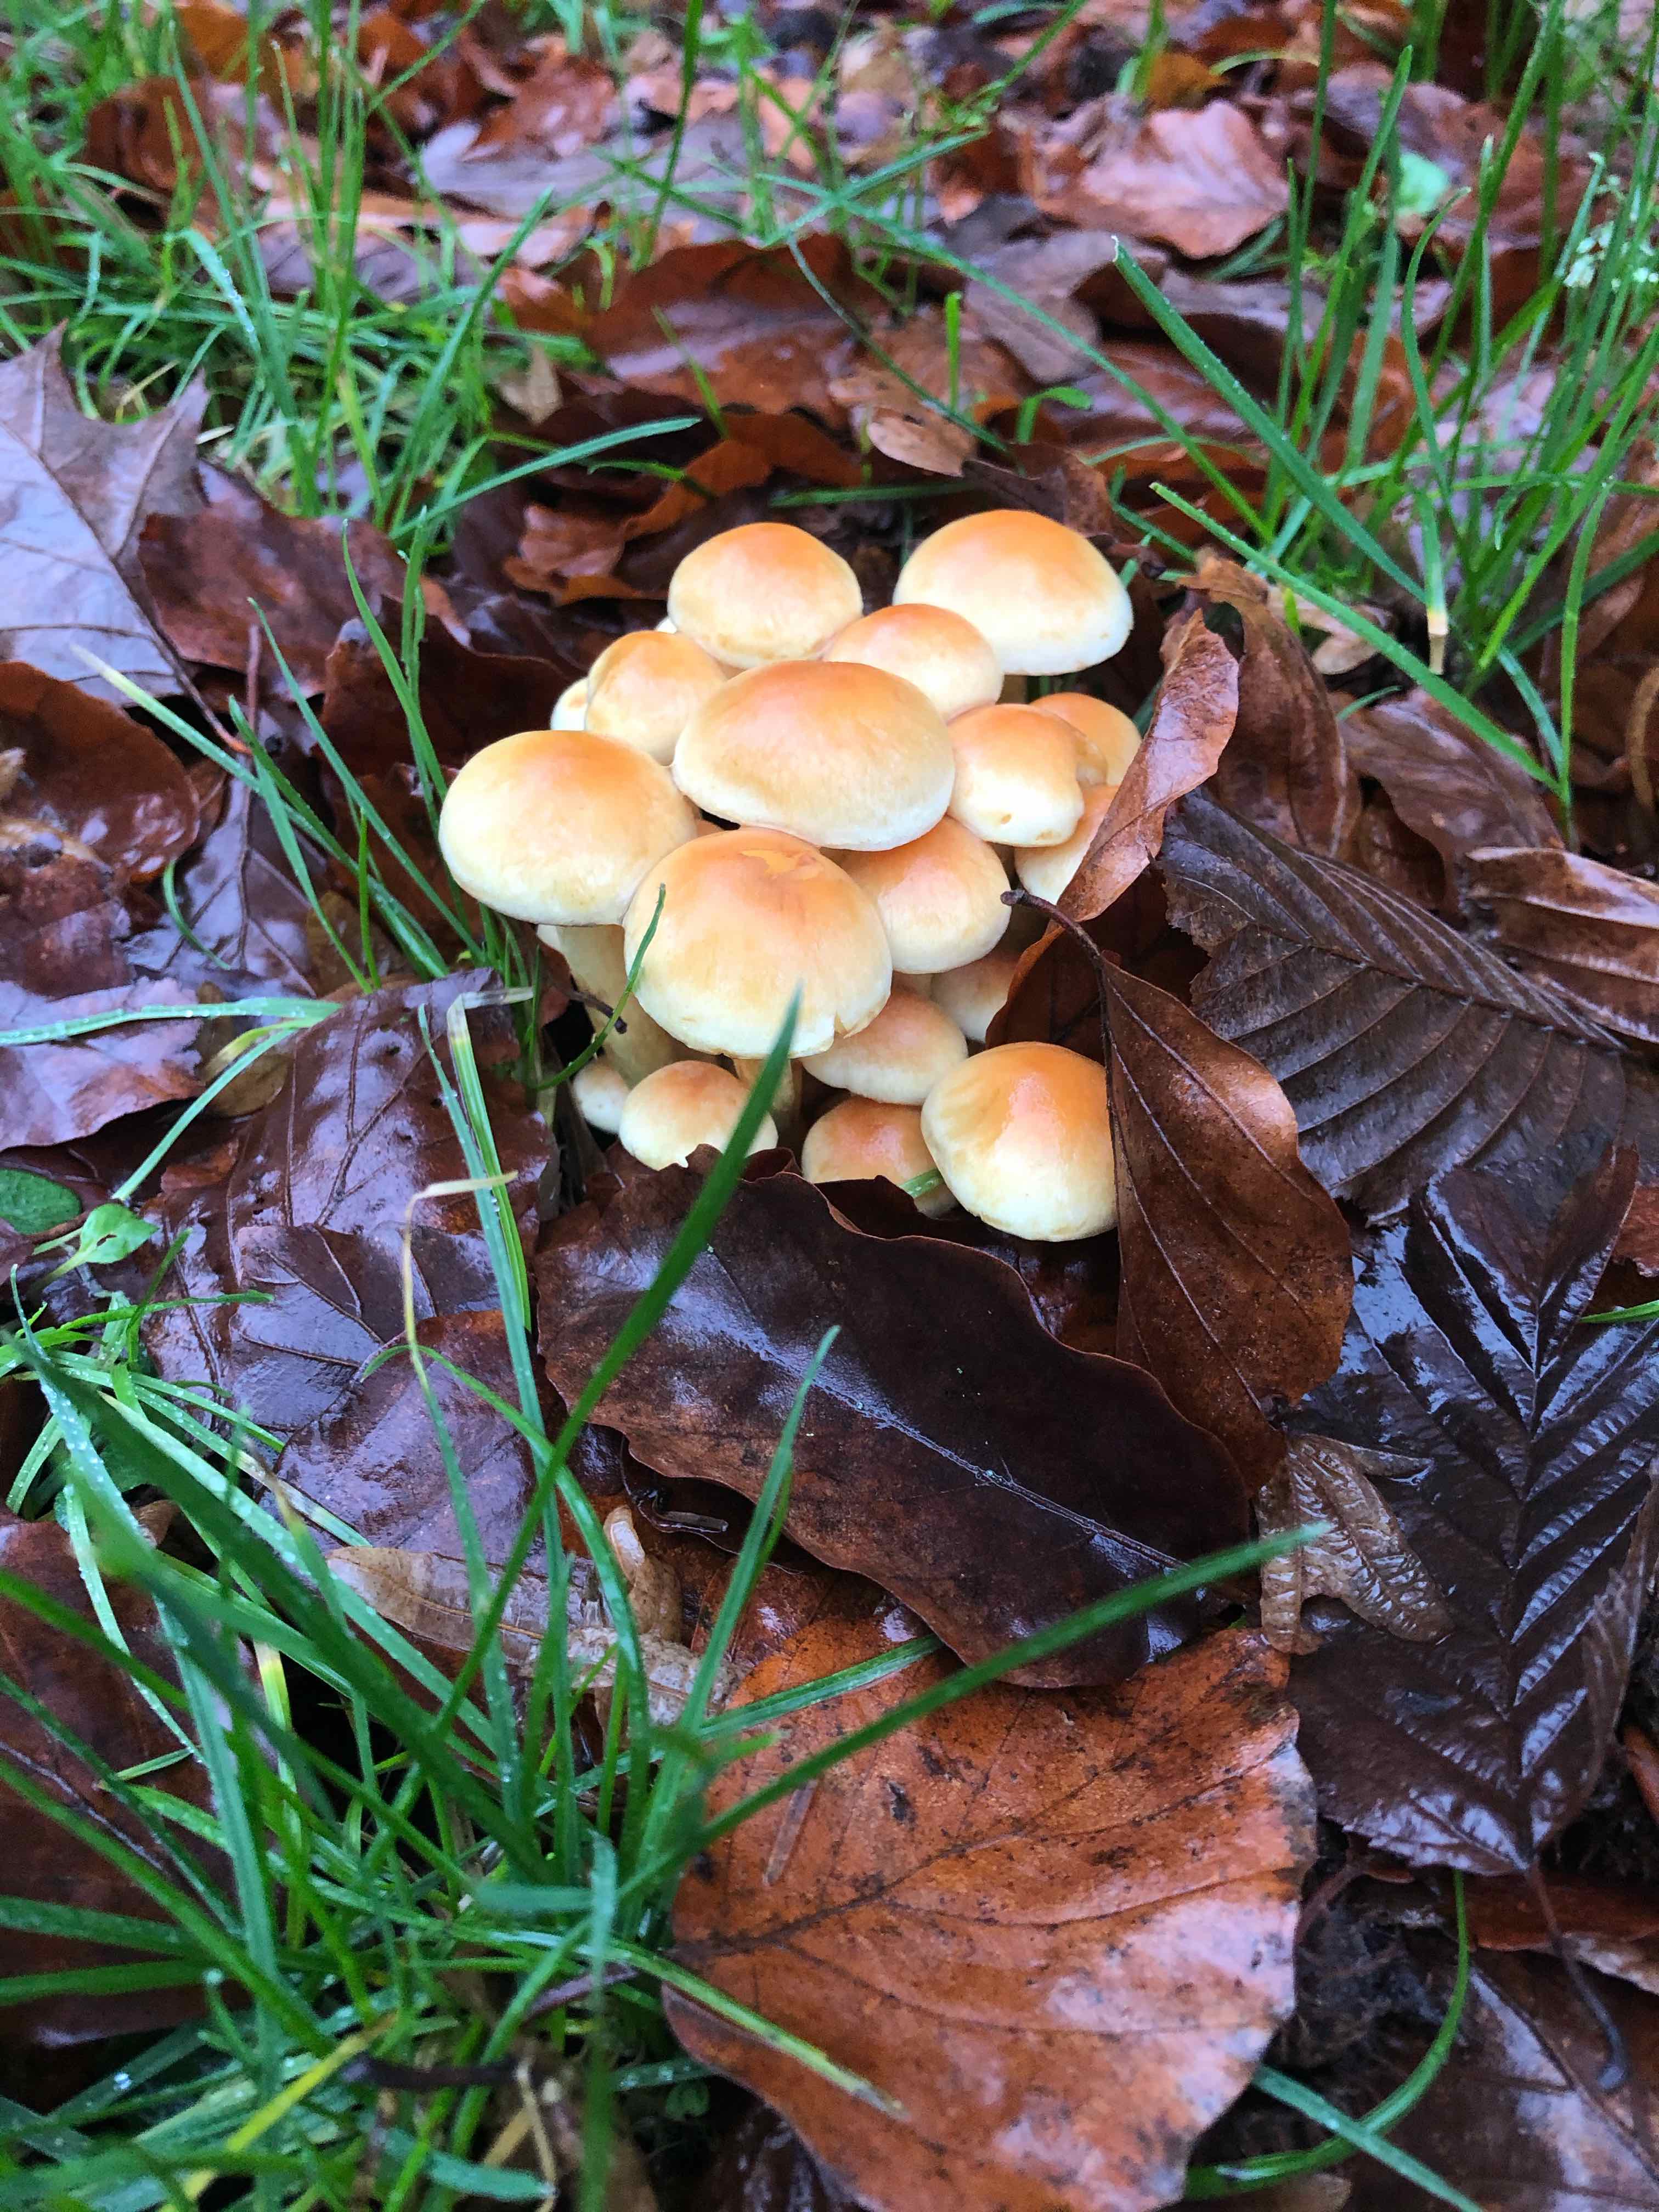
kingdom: Fungi
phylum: Basidiomycota
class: Agaricomycetes
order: Agaricales
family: Strophariaceae
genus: Hypholoma
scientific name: Hypholoma fasciculare
